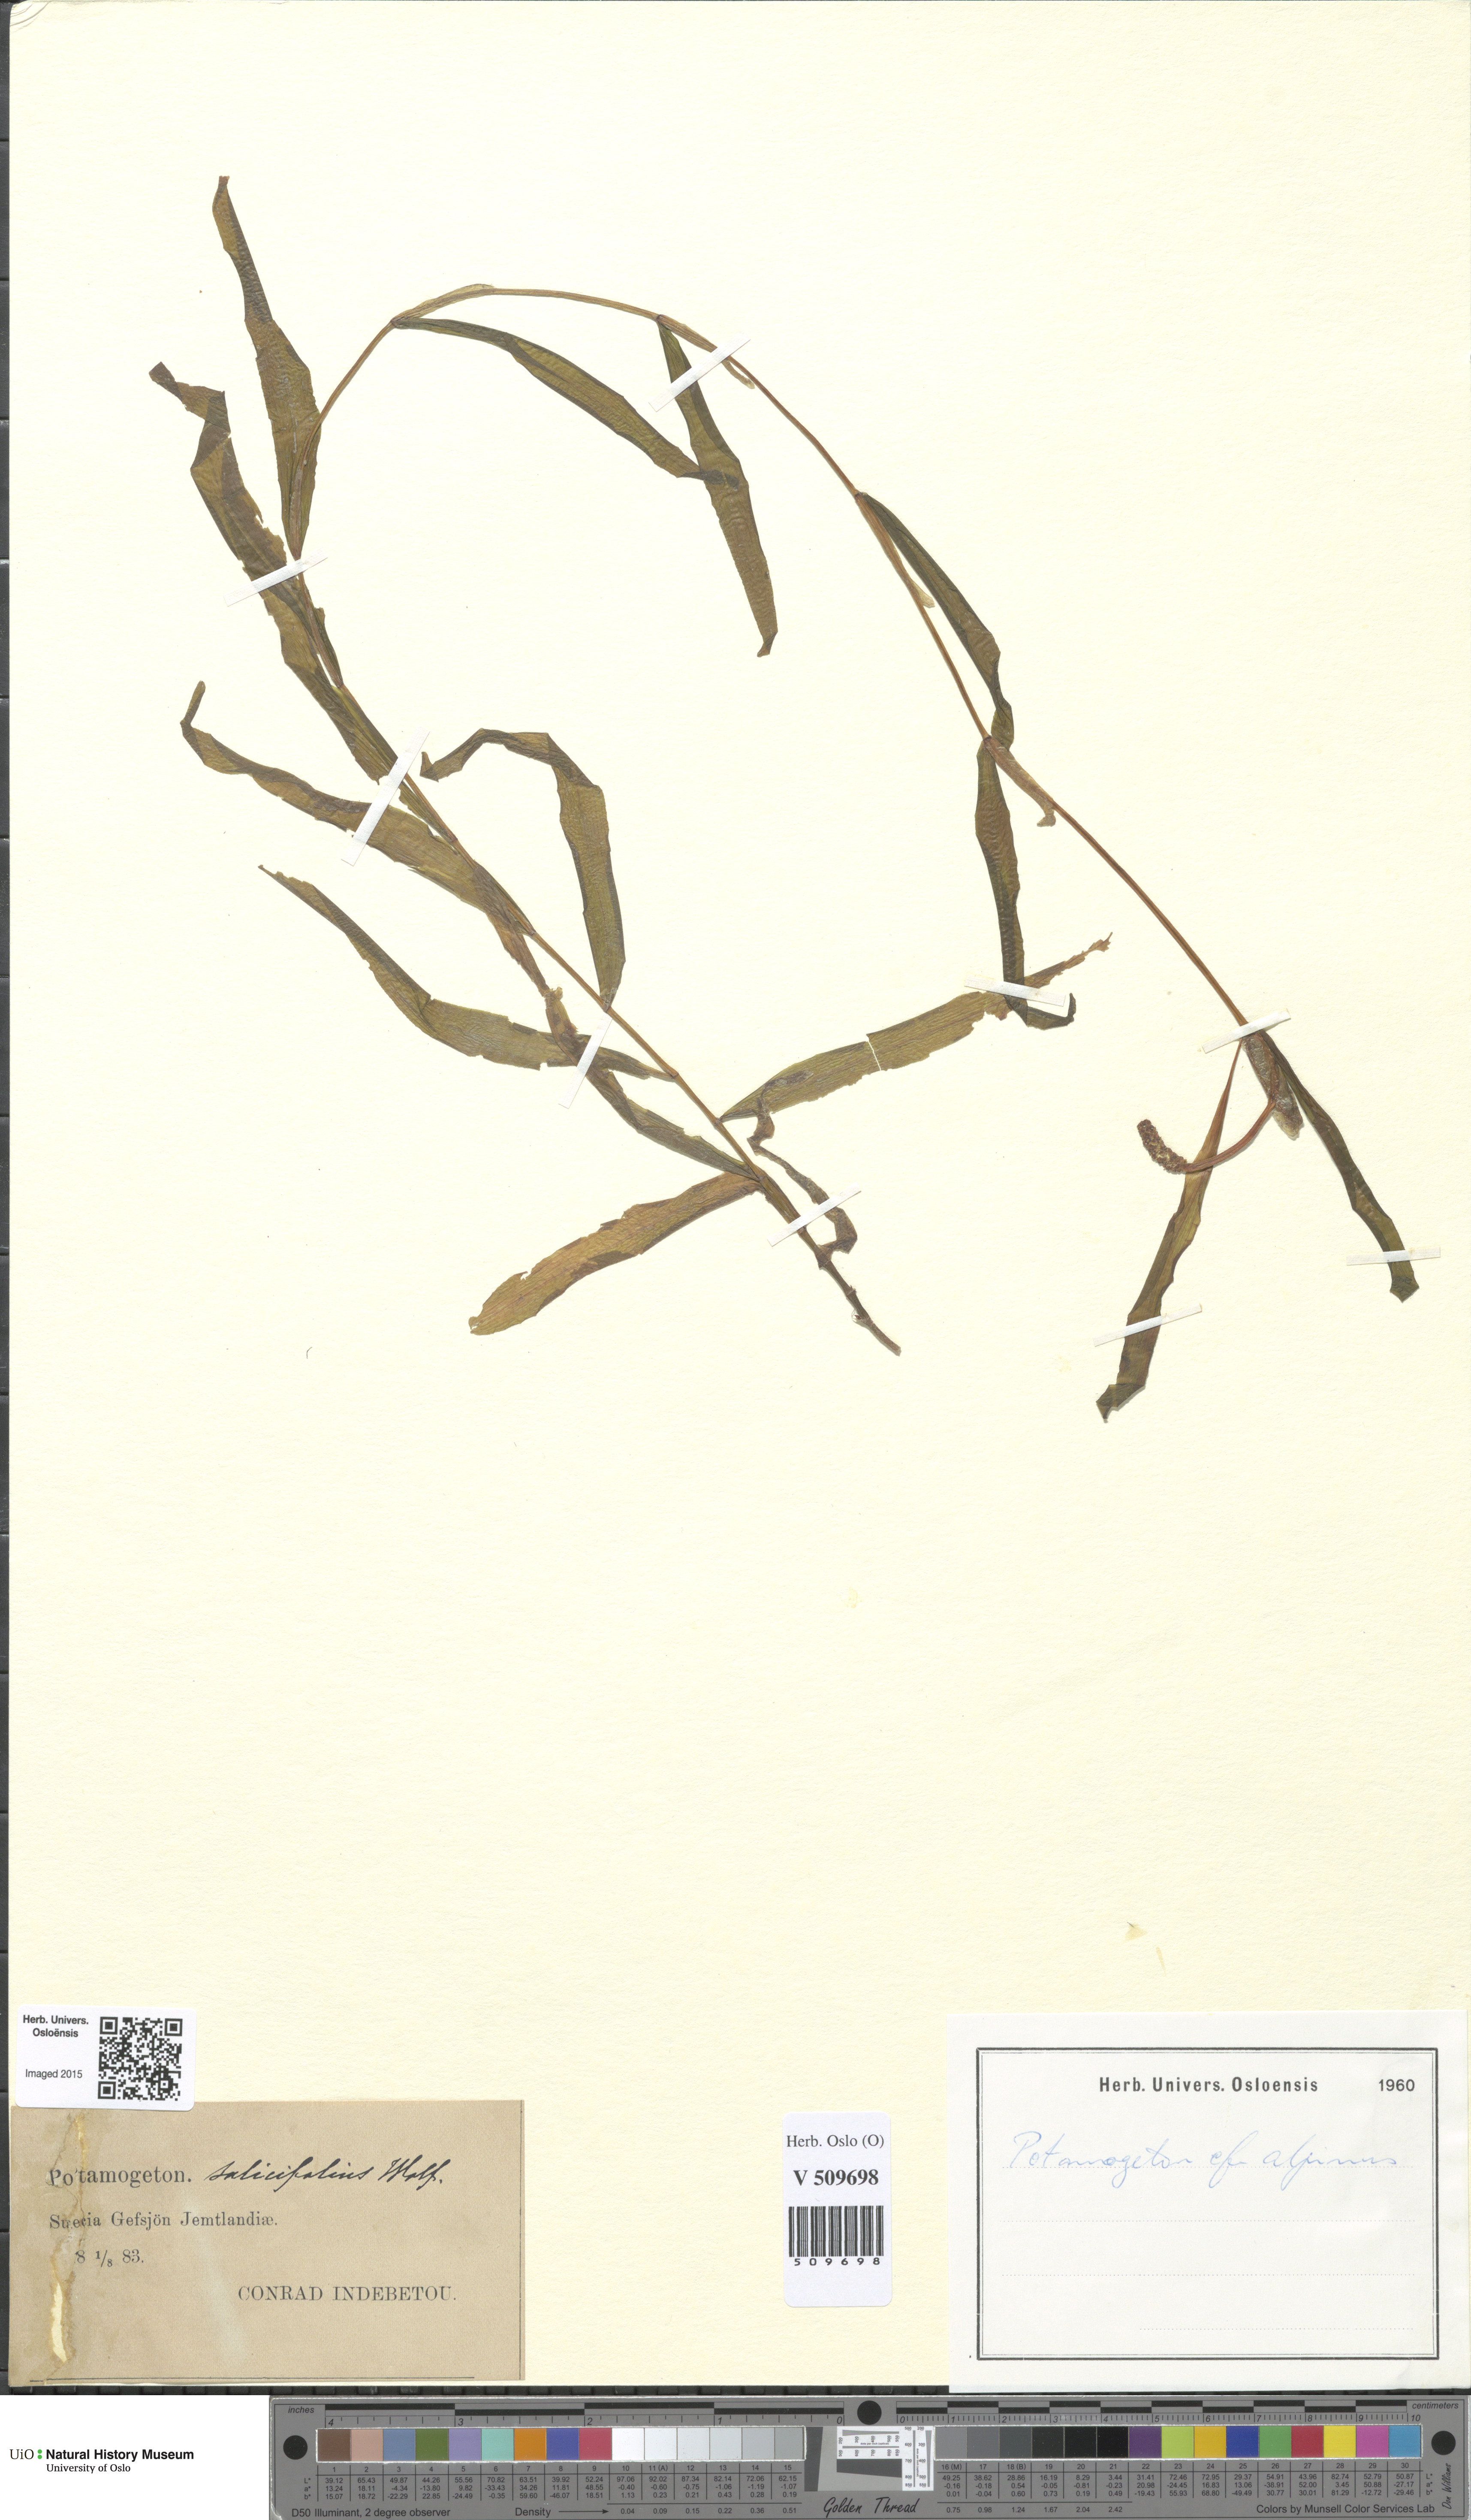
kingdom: Plantae
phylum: Tracheophyta
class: Liliopsida
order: Alismatales
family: Potamogetonaceae
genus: Potamogeton
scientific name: Potamogeton alpinus
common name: Red pondweed
